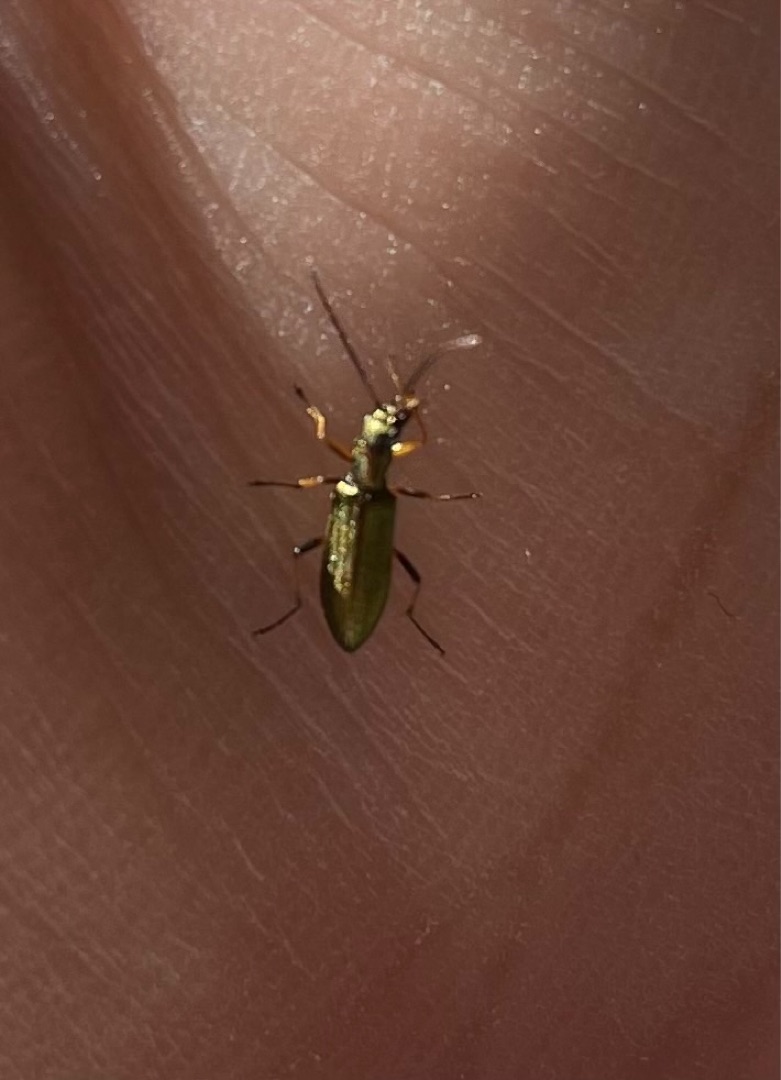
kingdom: Animalia
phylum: Arthropoda
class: Insecta
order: Coleoptera
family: Oedemeridae
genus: Chrysanthia
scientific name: Chrysanthia geniculata
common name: Grøn solbille
